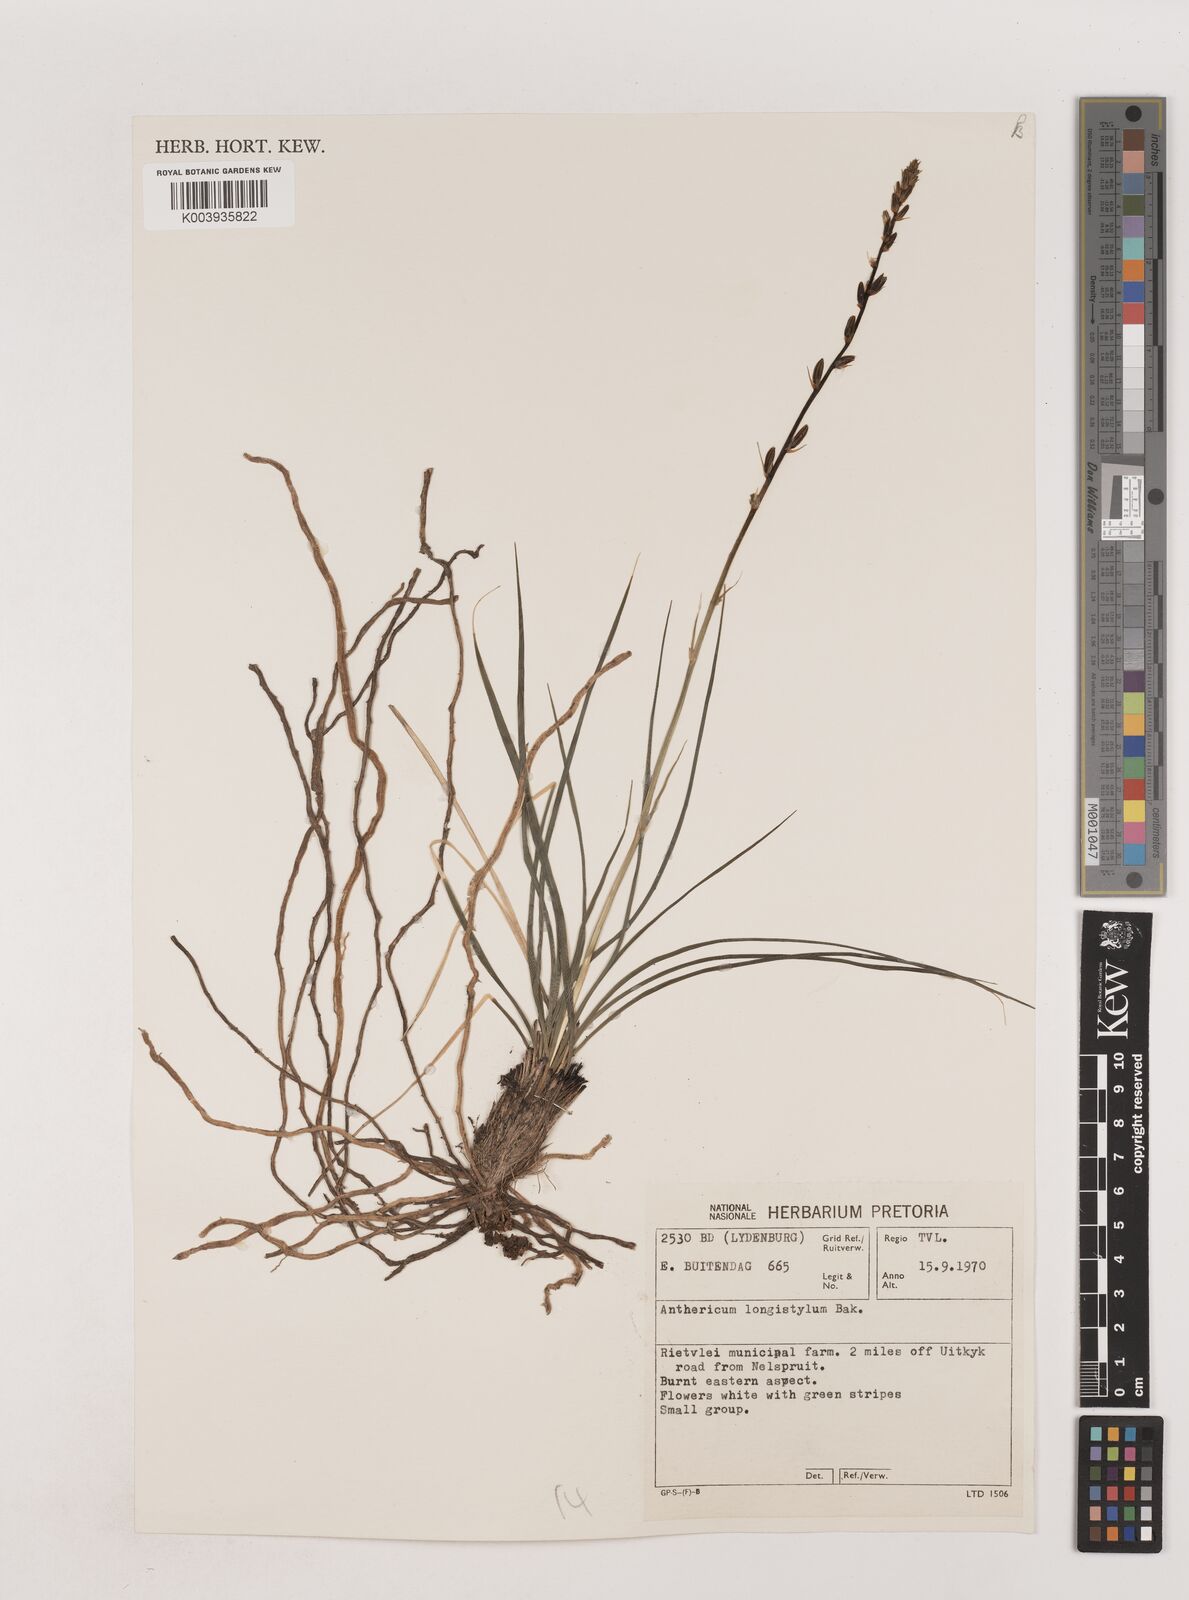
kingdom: Plantae
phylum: Tracheophyta
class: Liliopsida
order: Asparagales
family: Asparagaceae
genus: Chlorophytum
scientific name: Chlorophytum recurvifolium
